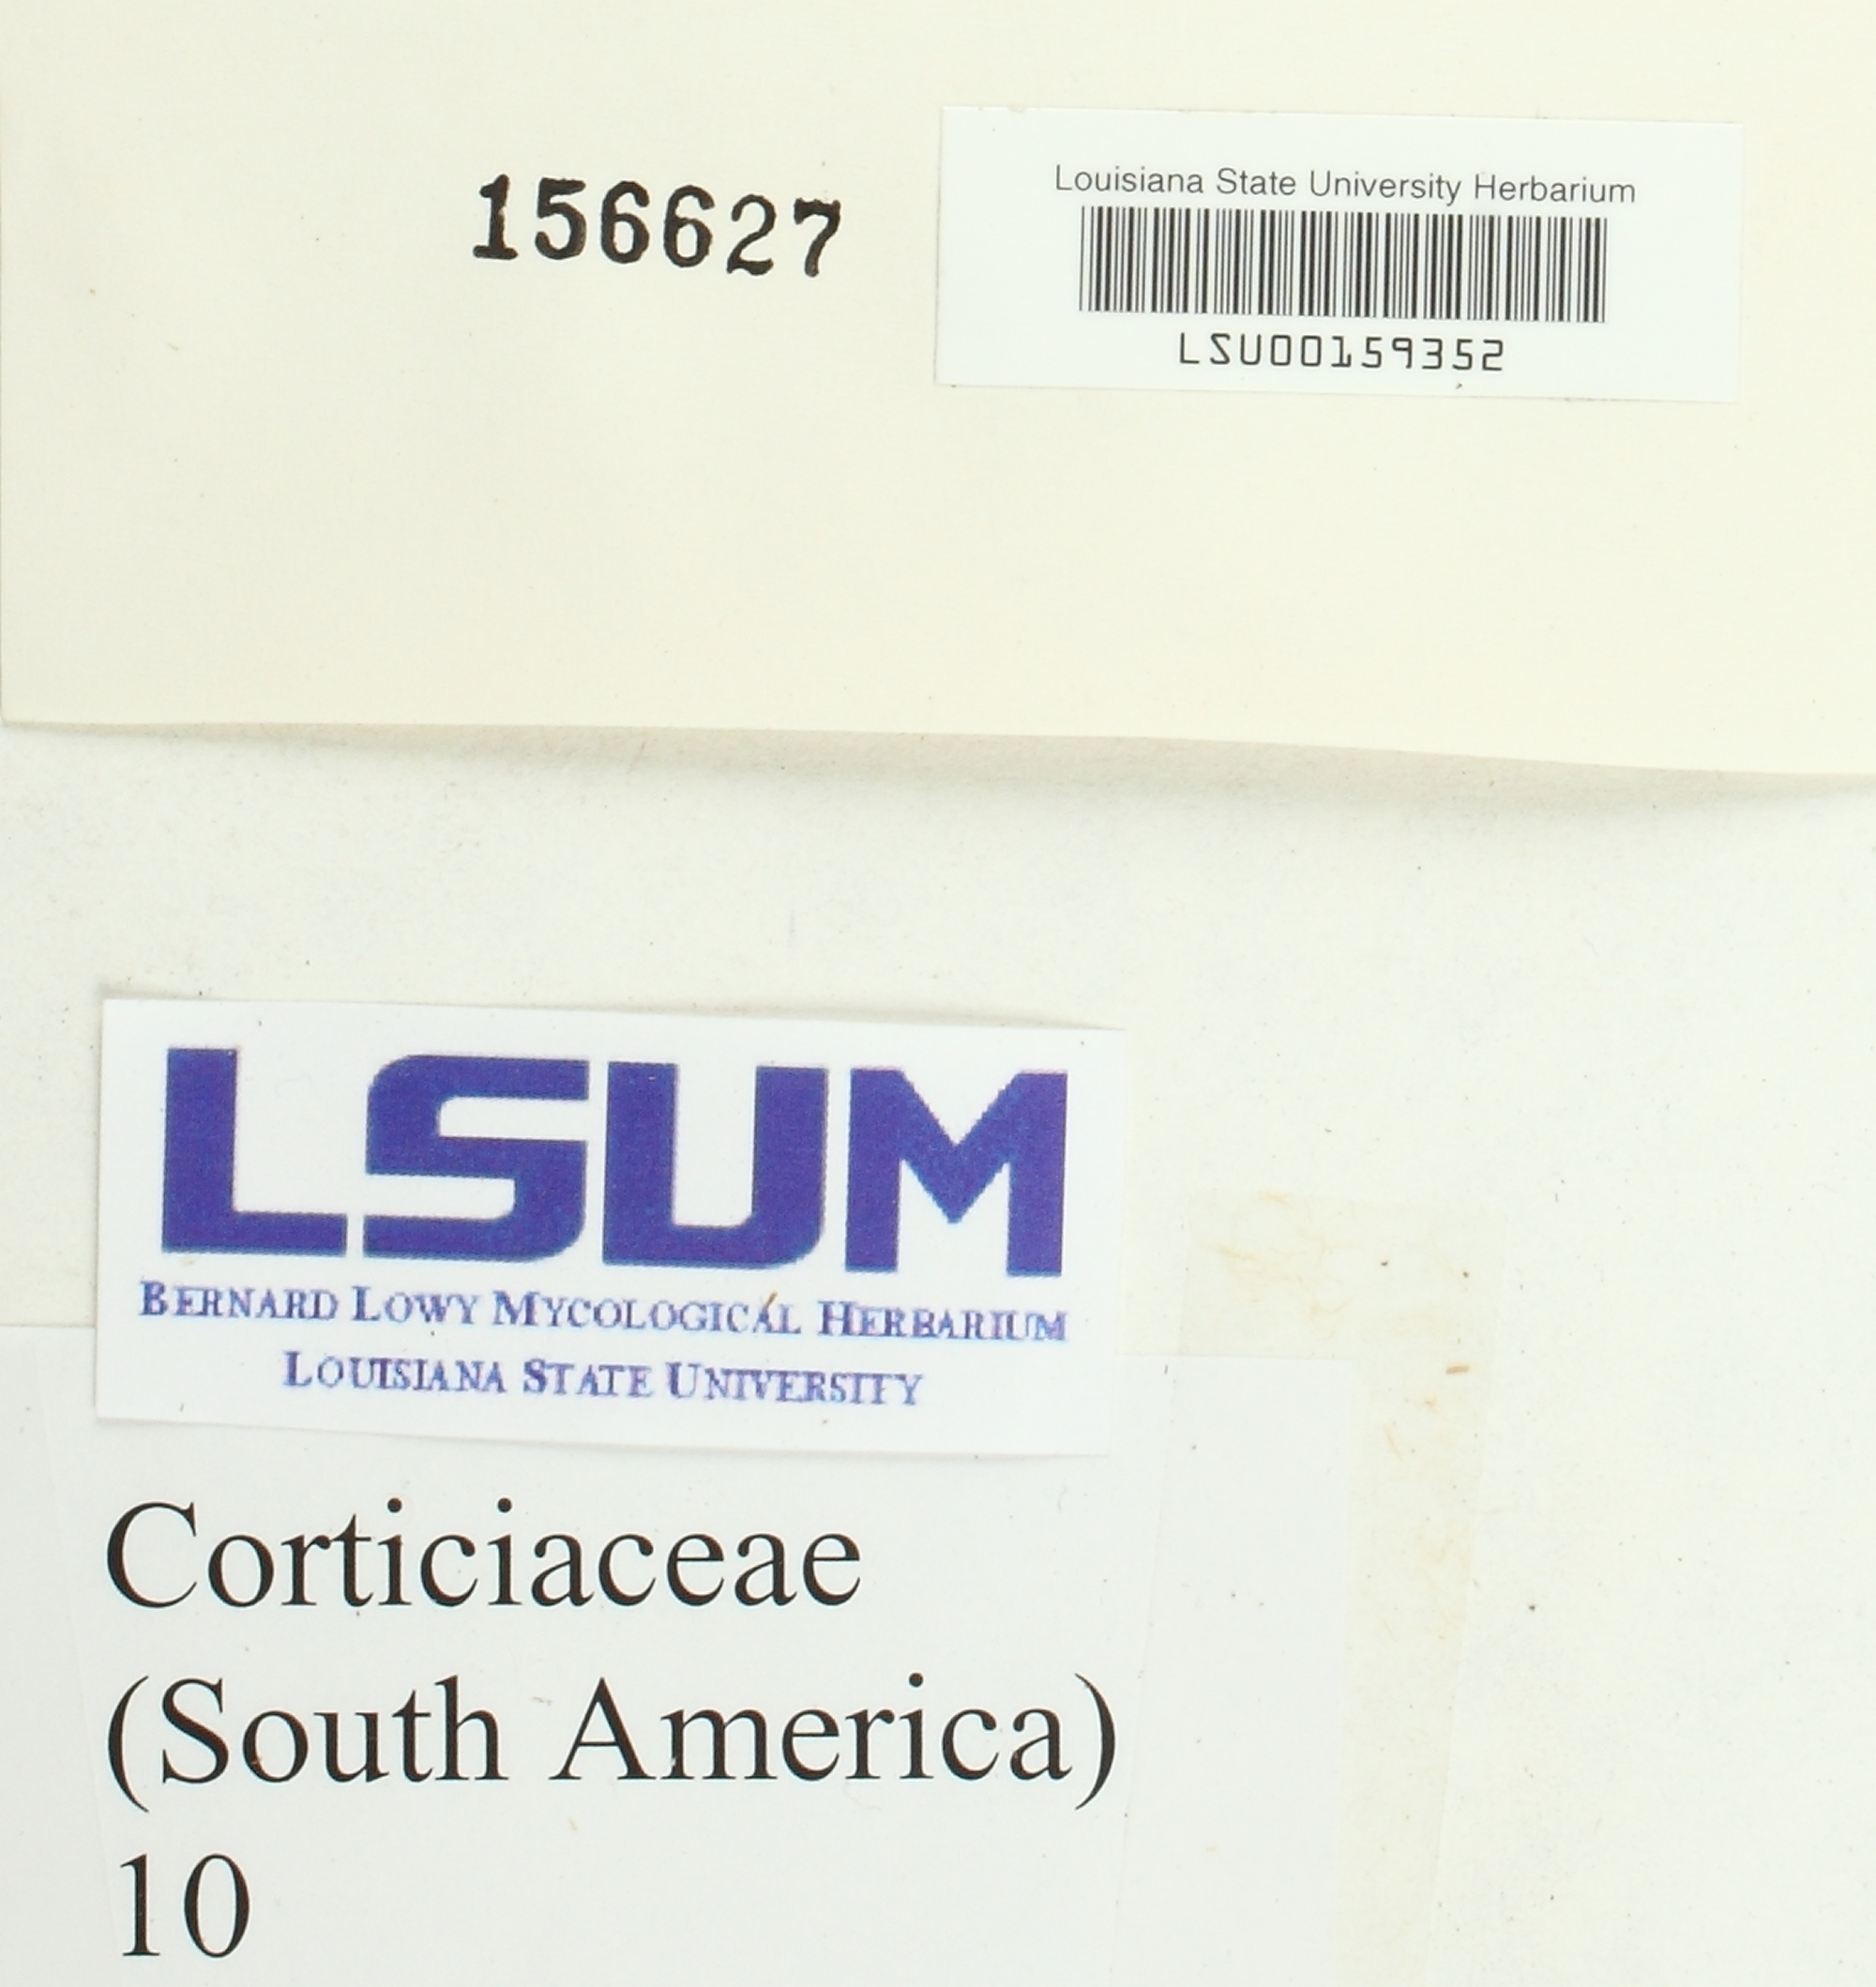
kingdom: Fungi
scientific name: Fungi
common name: Fungi
